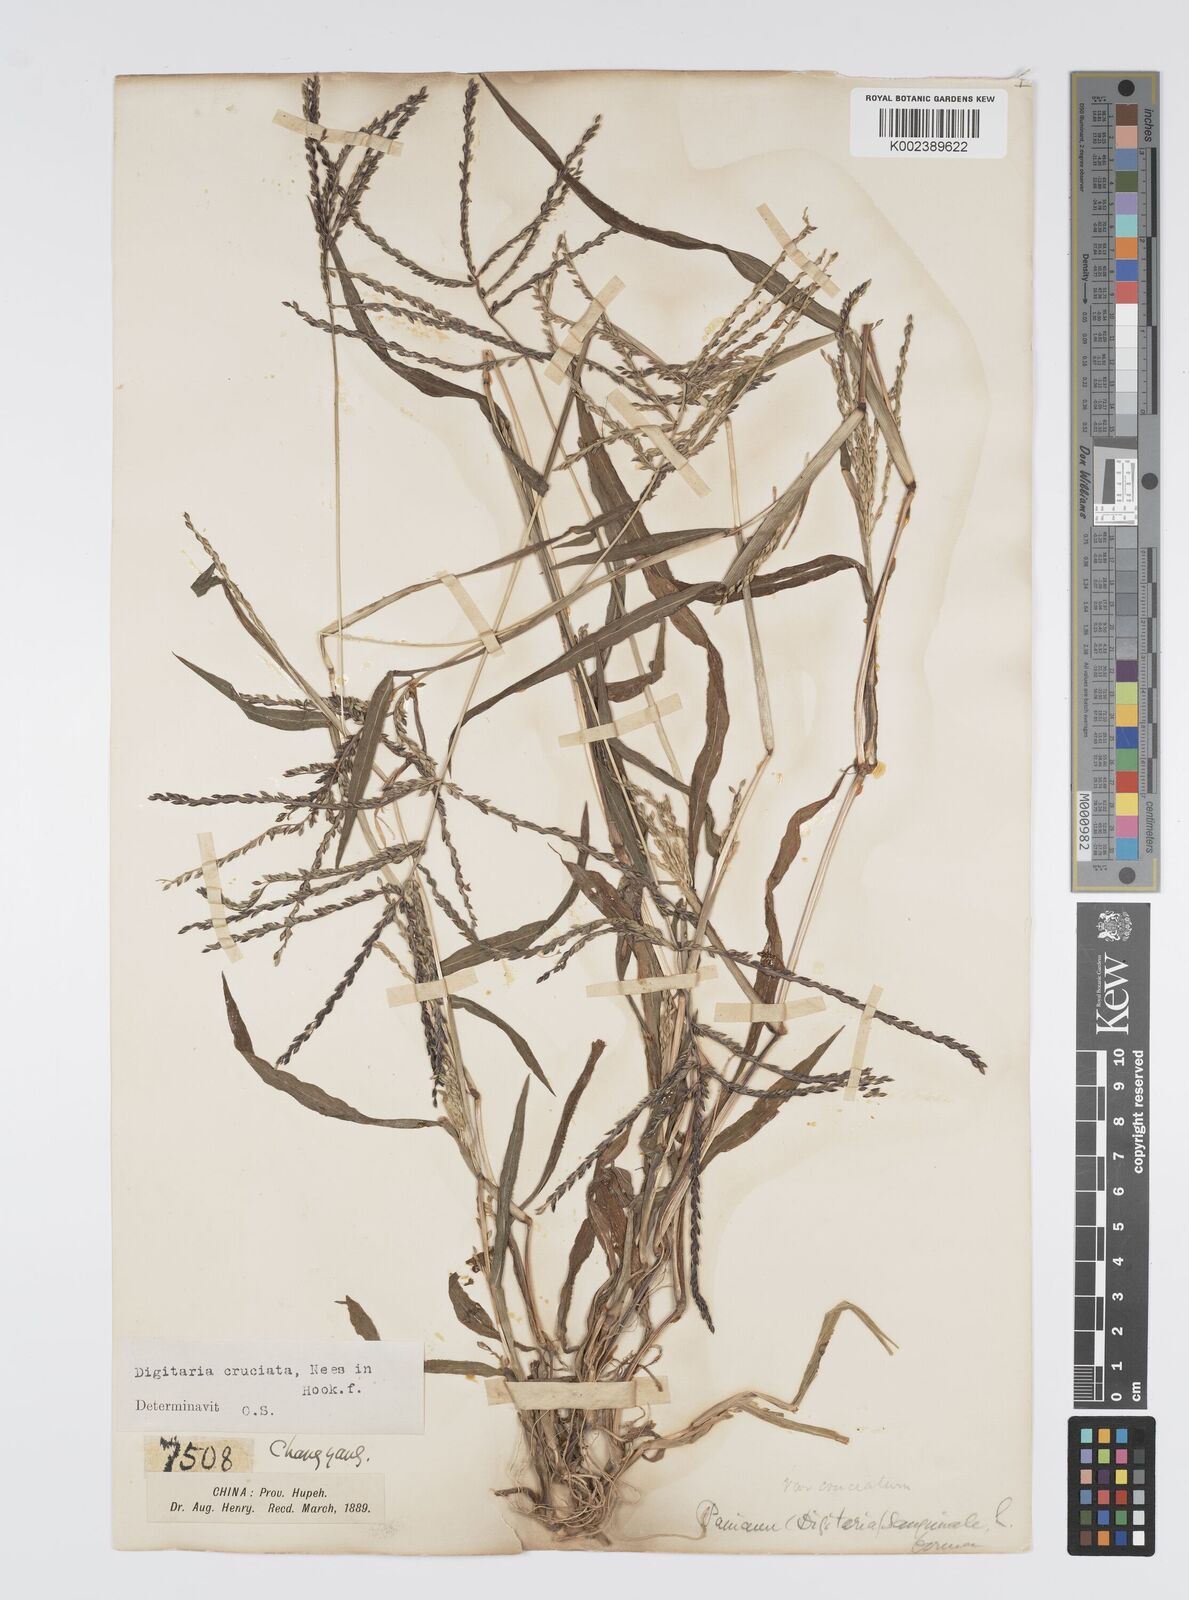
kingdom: Plantae
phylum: Tracheophyta
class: Liliopsida
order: Poales
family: Poaceae
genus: Digitaria
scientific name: Digitaria cruciata
